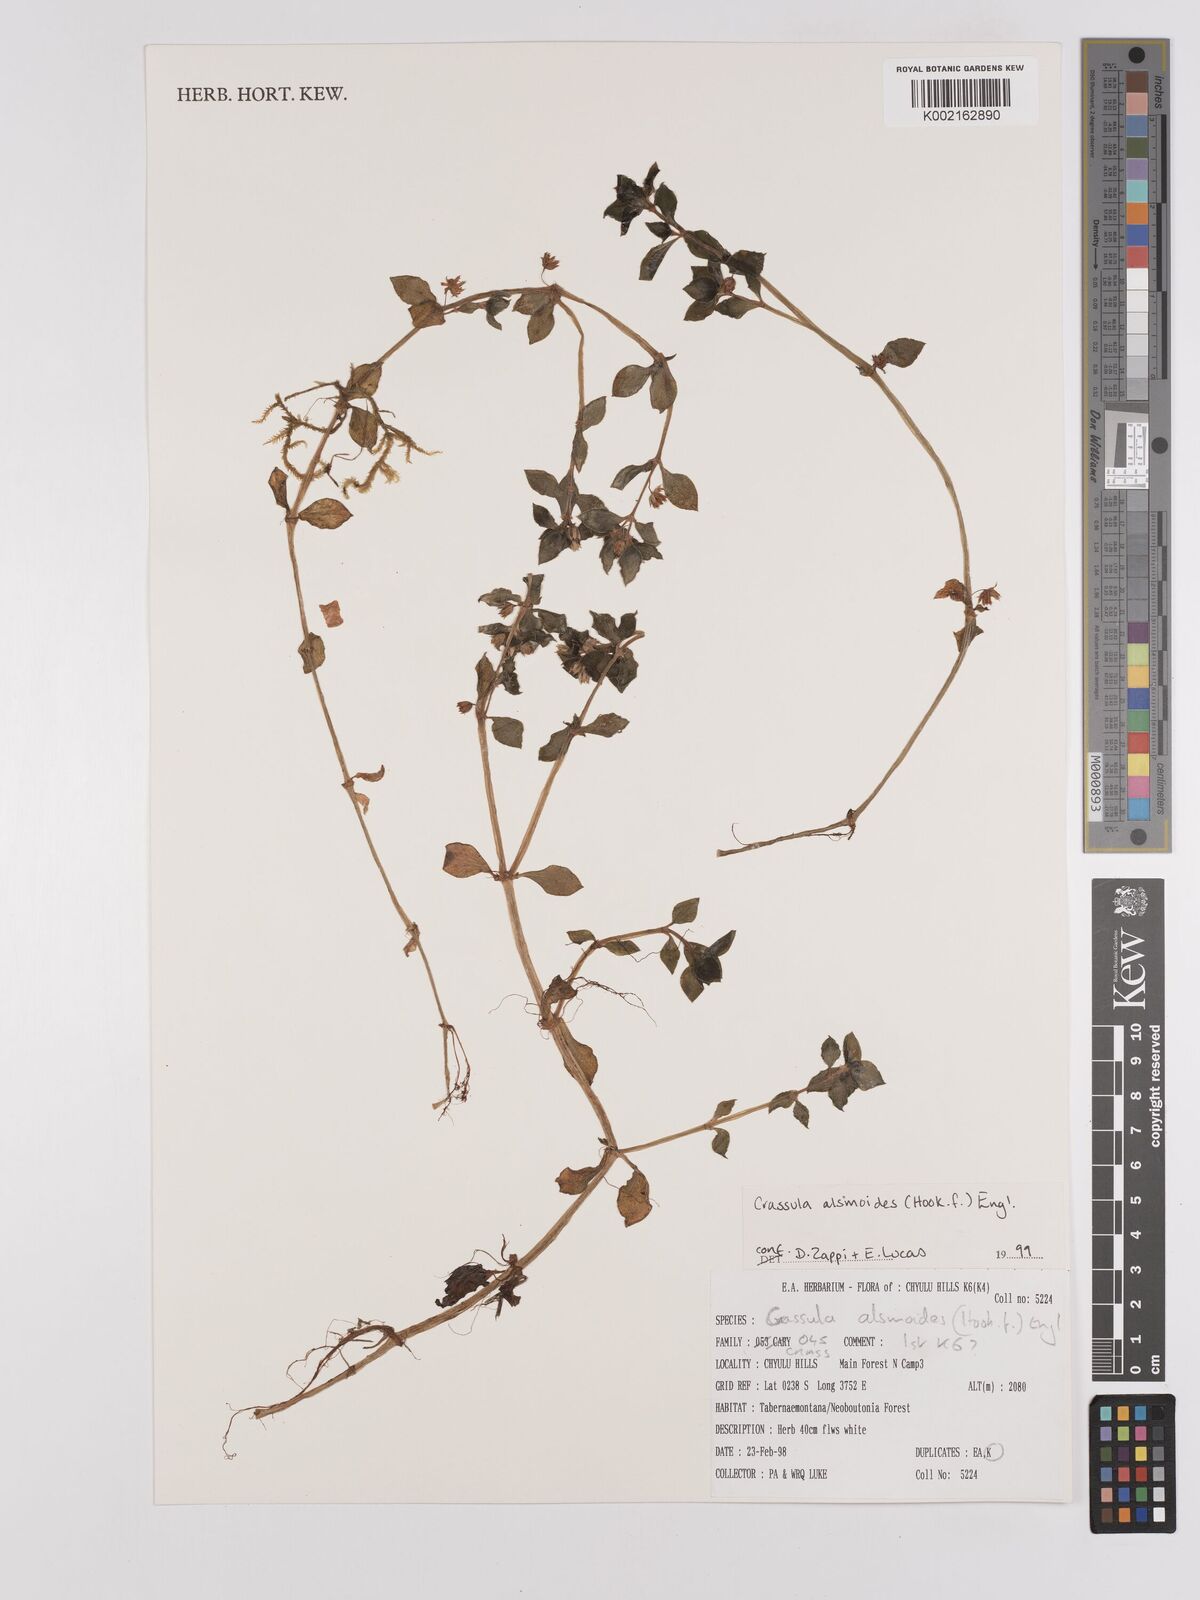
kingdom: Plantae
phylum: Tracheophyta
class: Magnoliopsida
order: Saxifragales
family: Crassulaceae
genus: Crassula
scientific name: Crassula alsinoides
